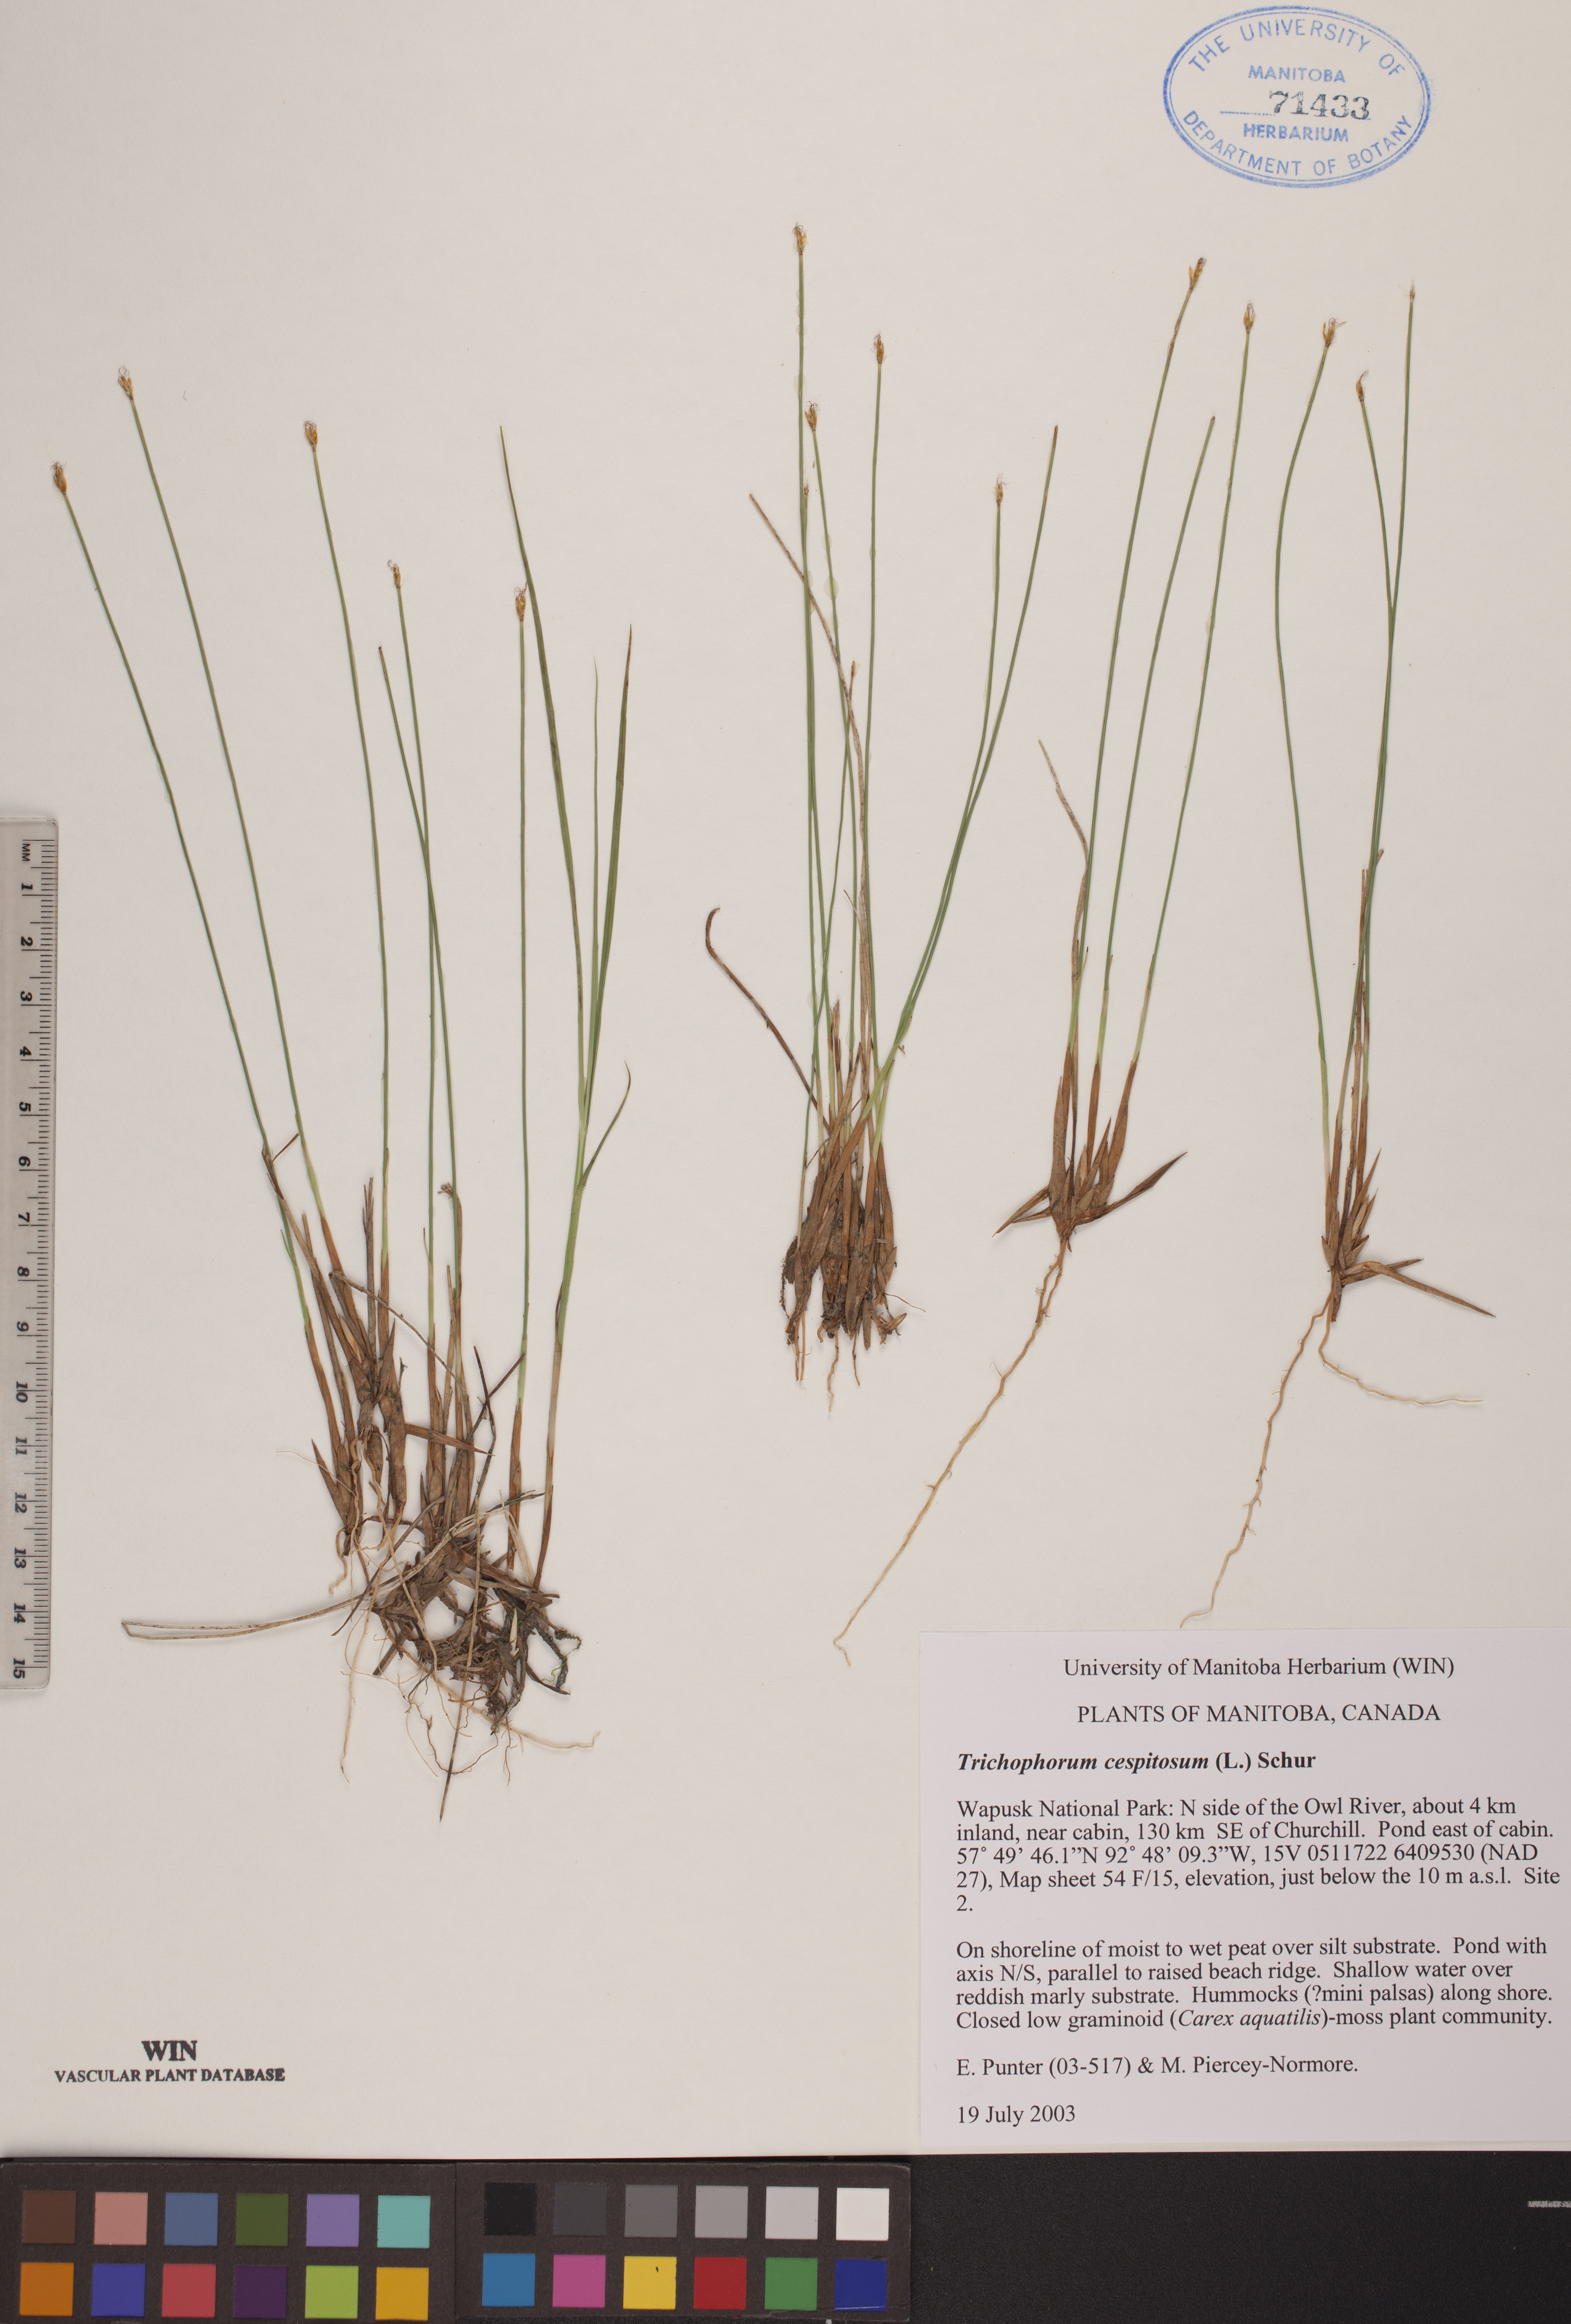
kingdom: Plantae
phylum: Tracheophyta
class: Liliopsida
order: Poales
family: Cyperaceae
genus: Trichophorum
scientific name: Trichophorum cespitosum
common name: Cespitose bulrush
